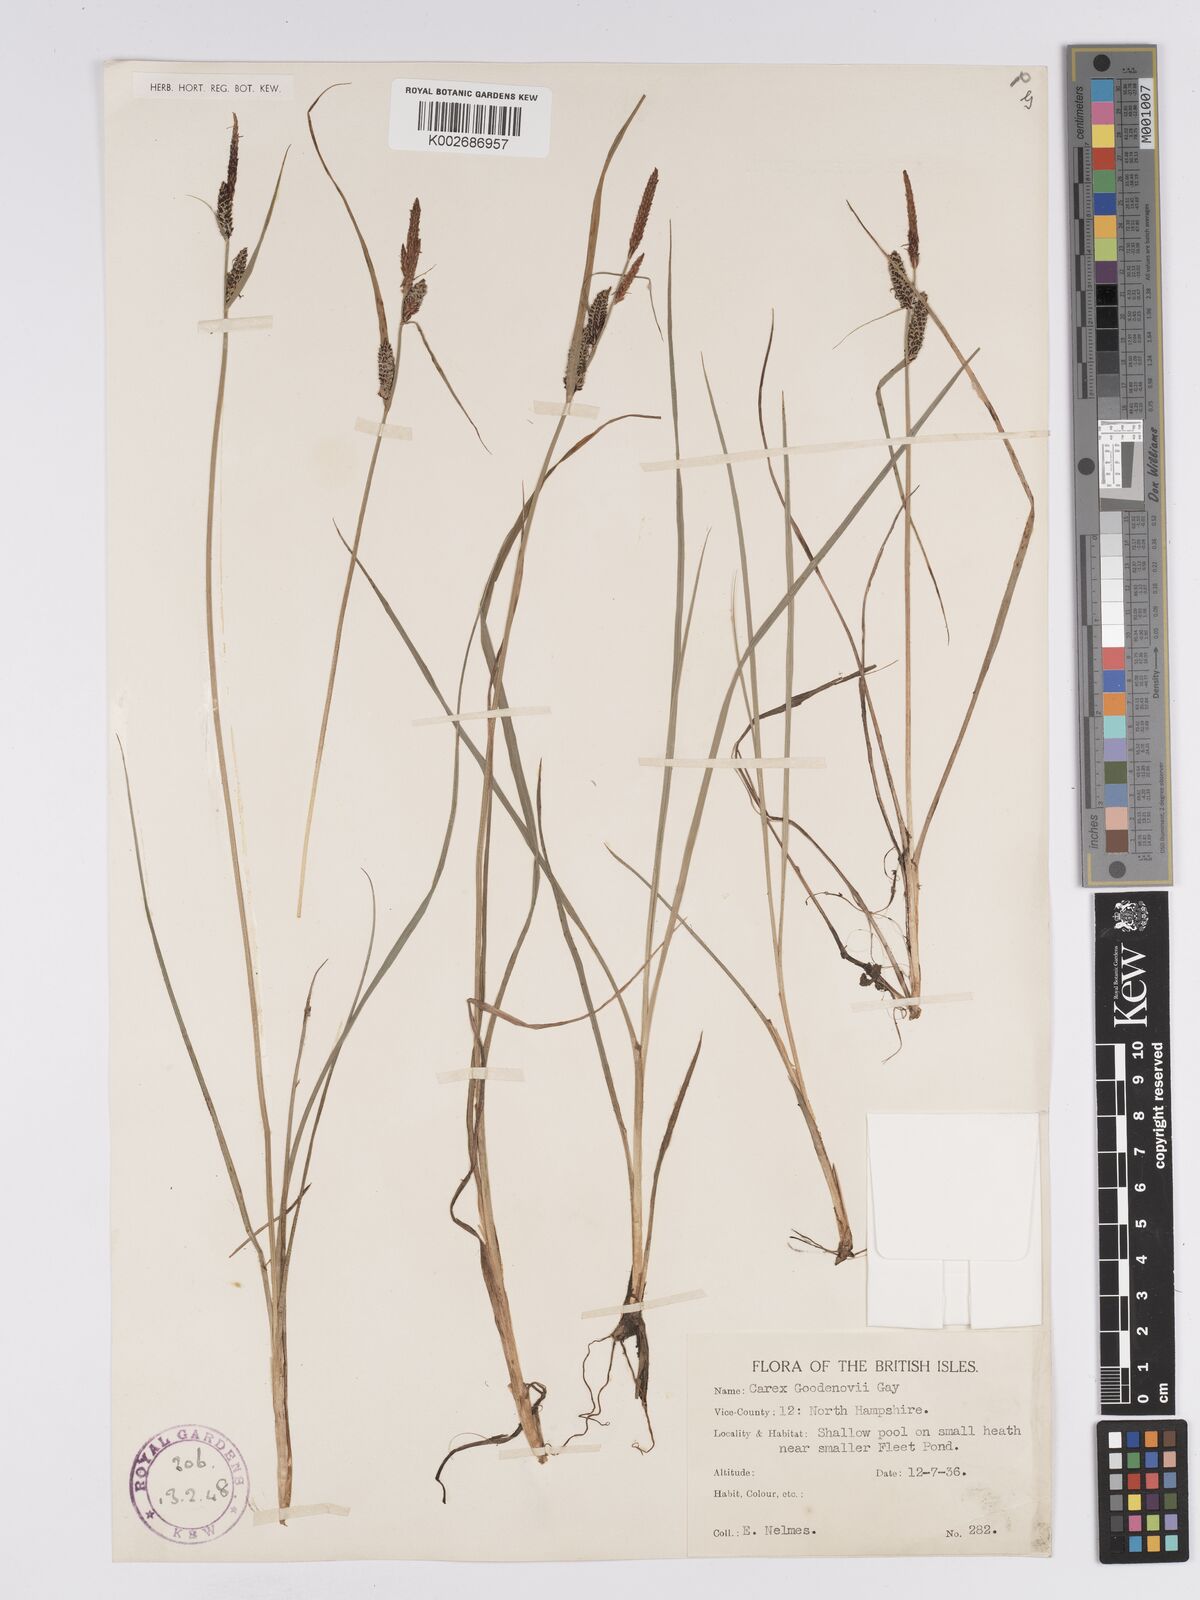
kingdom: Plantae
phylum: Tracheophyta
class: Liliopsida
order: Poales
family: Cyperaceae
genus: Carex
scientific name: Carex nigra
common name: Common sedge
